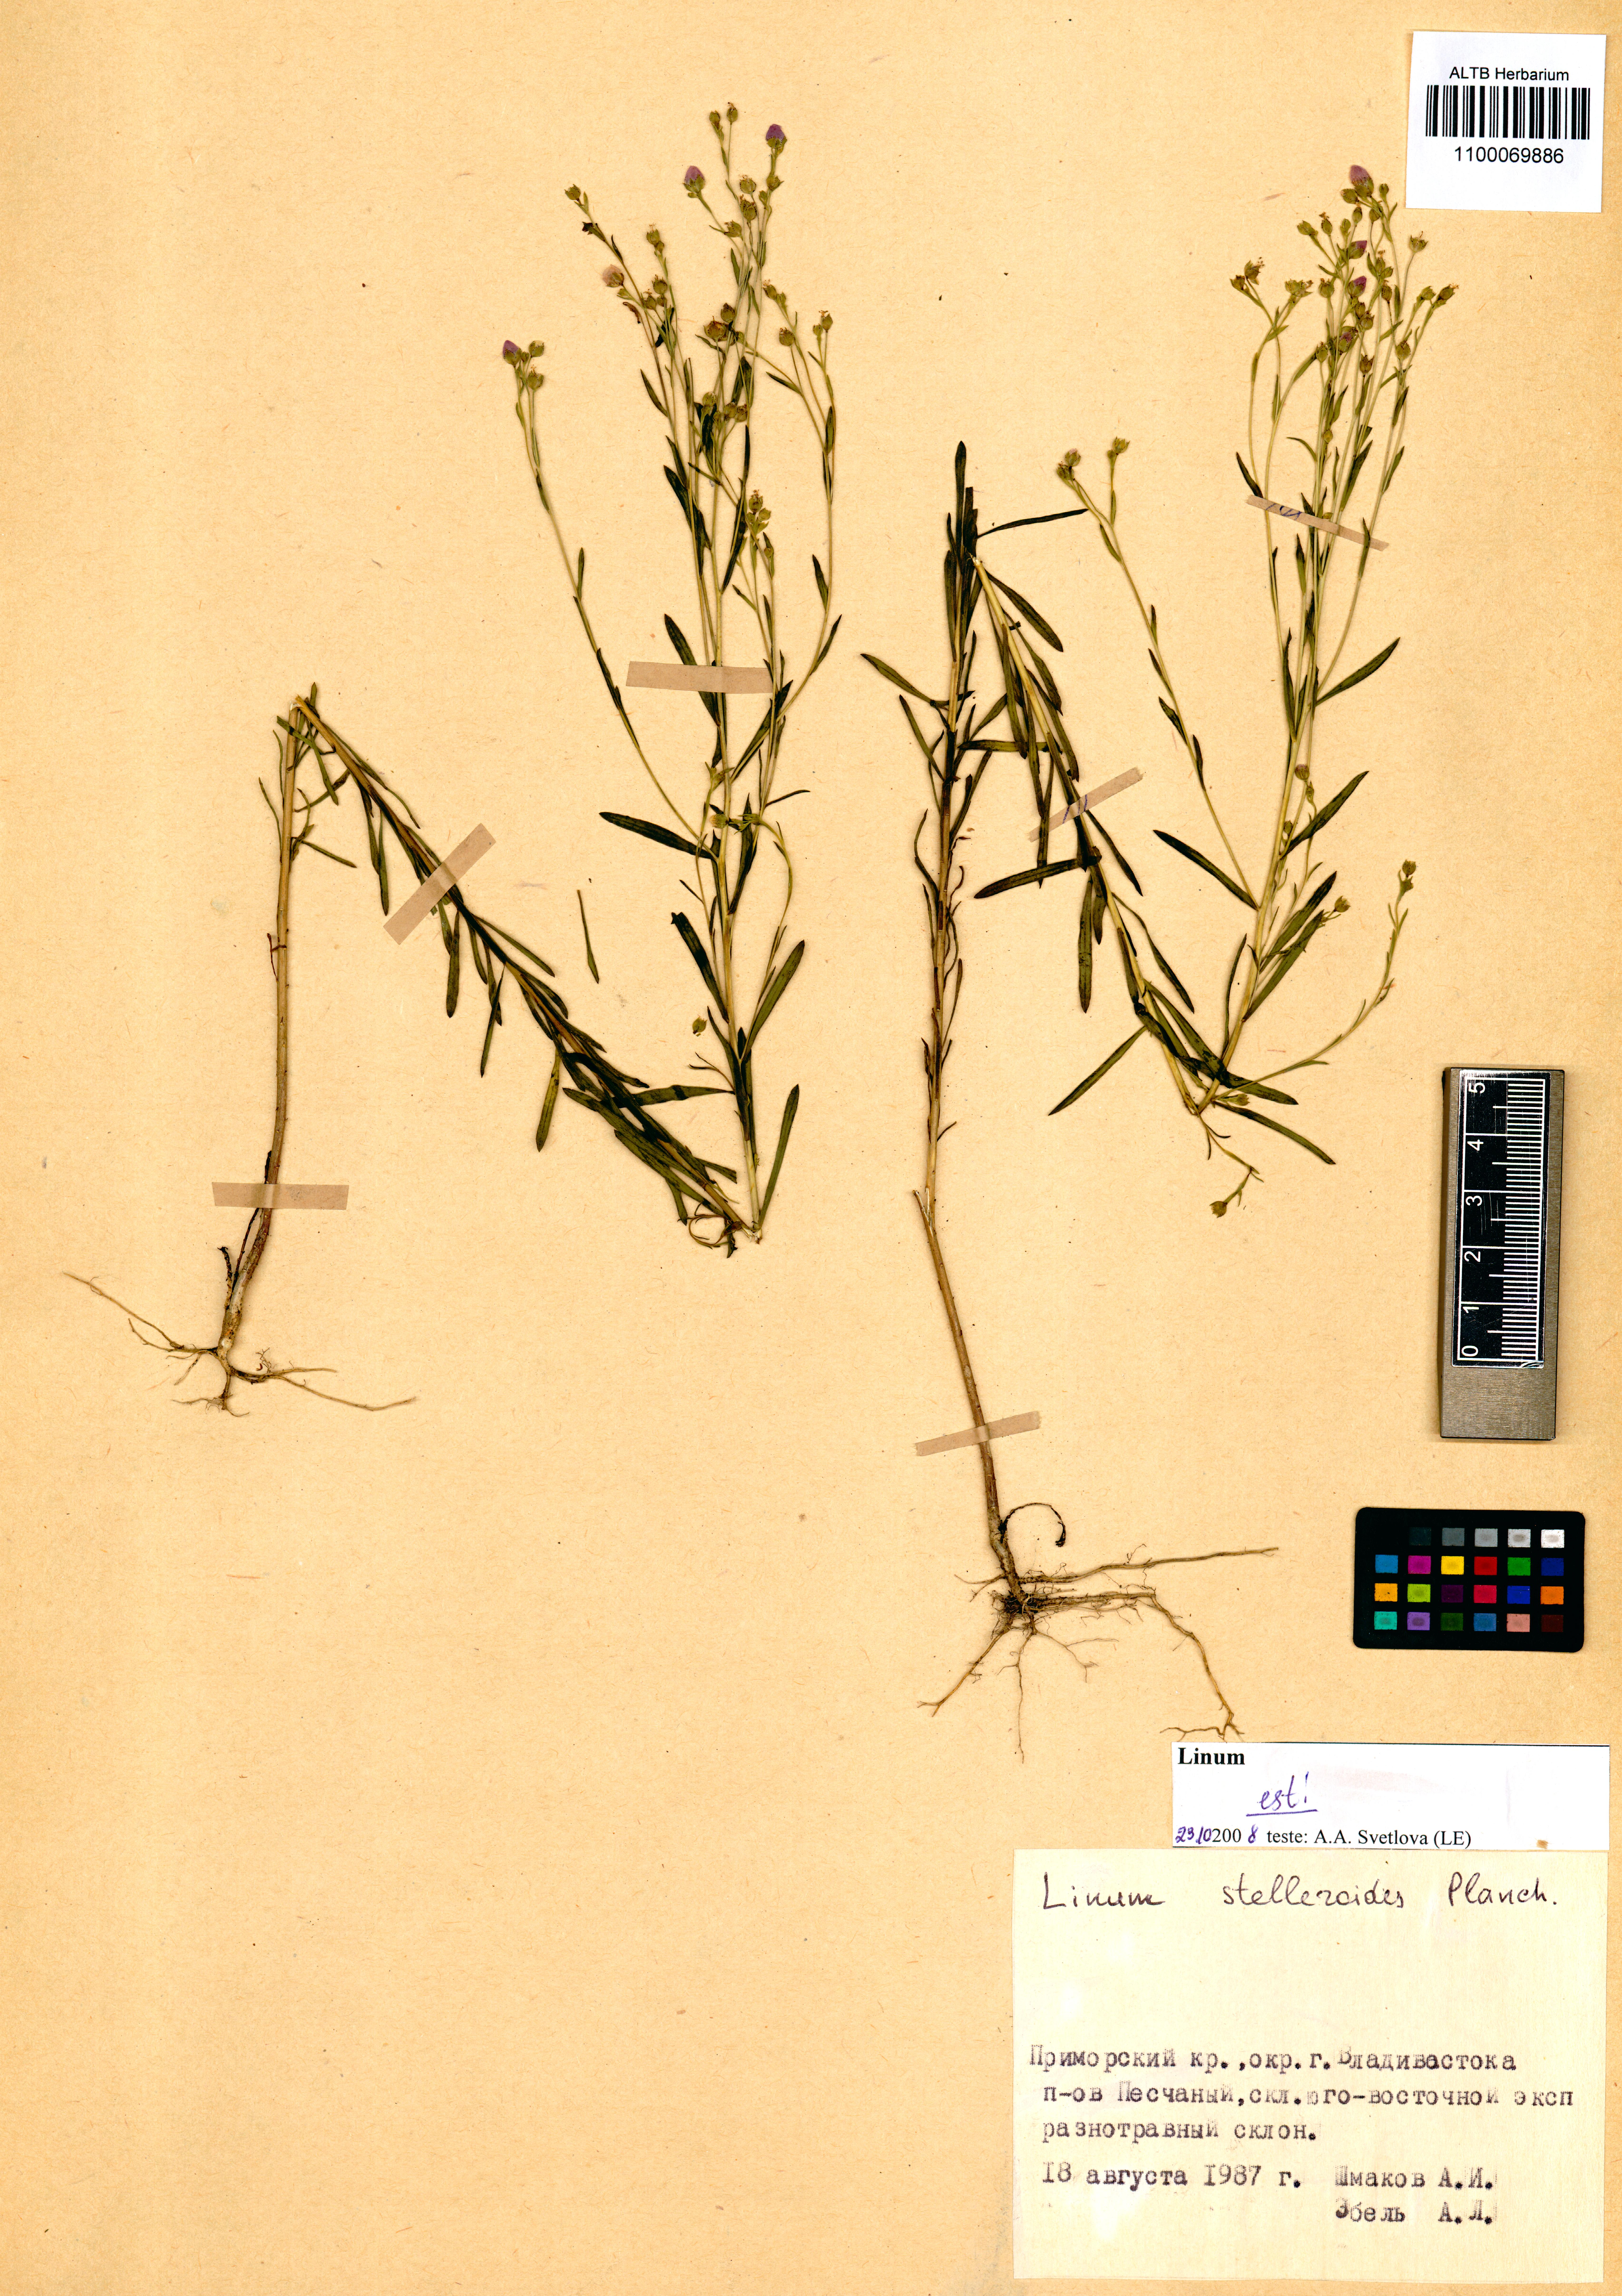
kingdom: Plantae
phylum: Tracheophyta
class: Magnoliopsida
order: Malpighiales
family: Linaceae
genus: Linum
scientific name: Linum stelleroides
